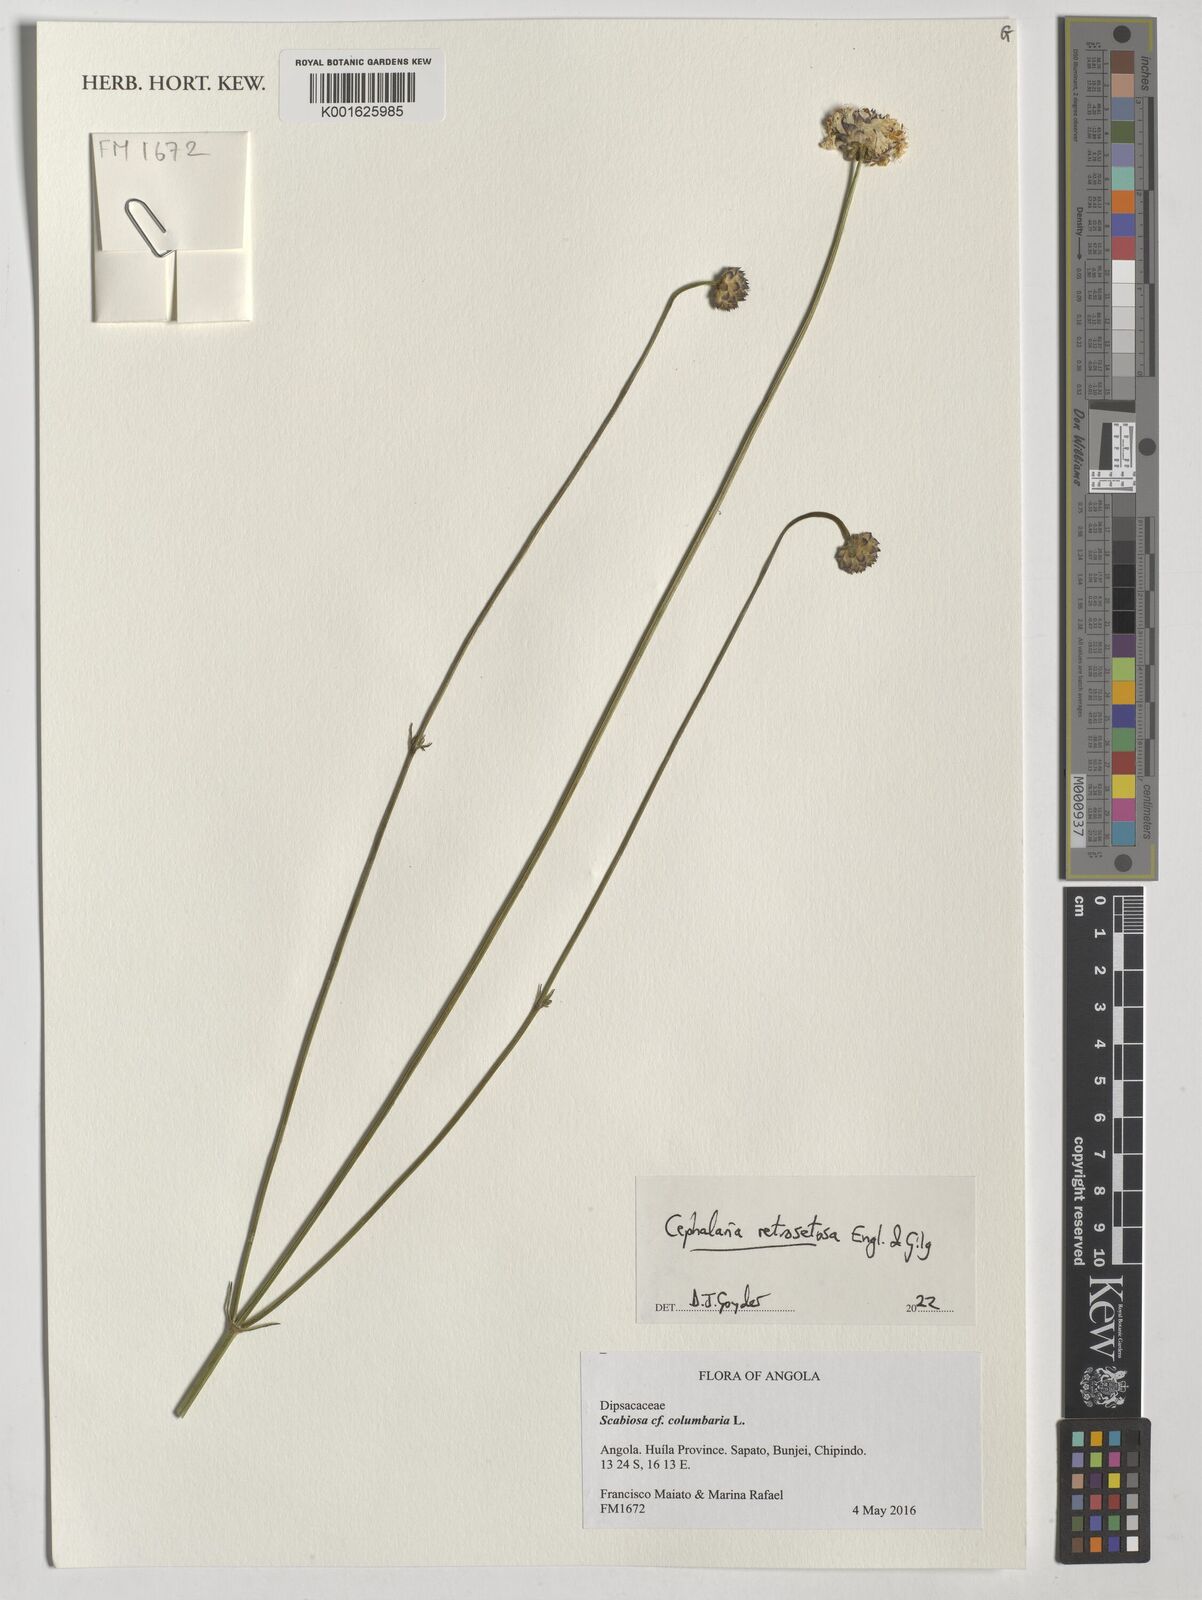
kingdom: Plantae
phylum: Tracheophyta
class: Magnoliopsida
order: Dipsacales
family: Caprifoliaceae
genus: Cephalaria
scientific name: Cephalaria retrosetosa
